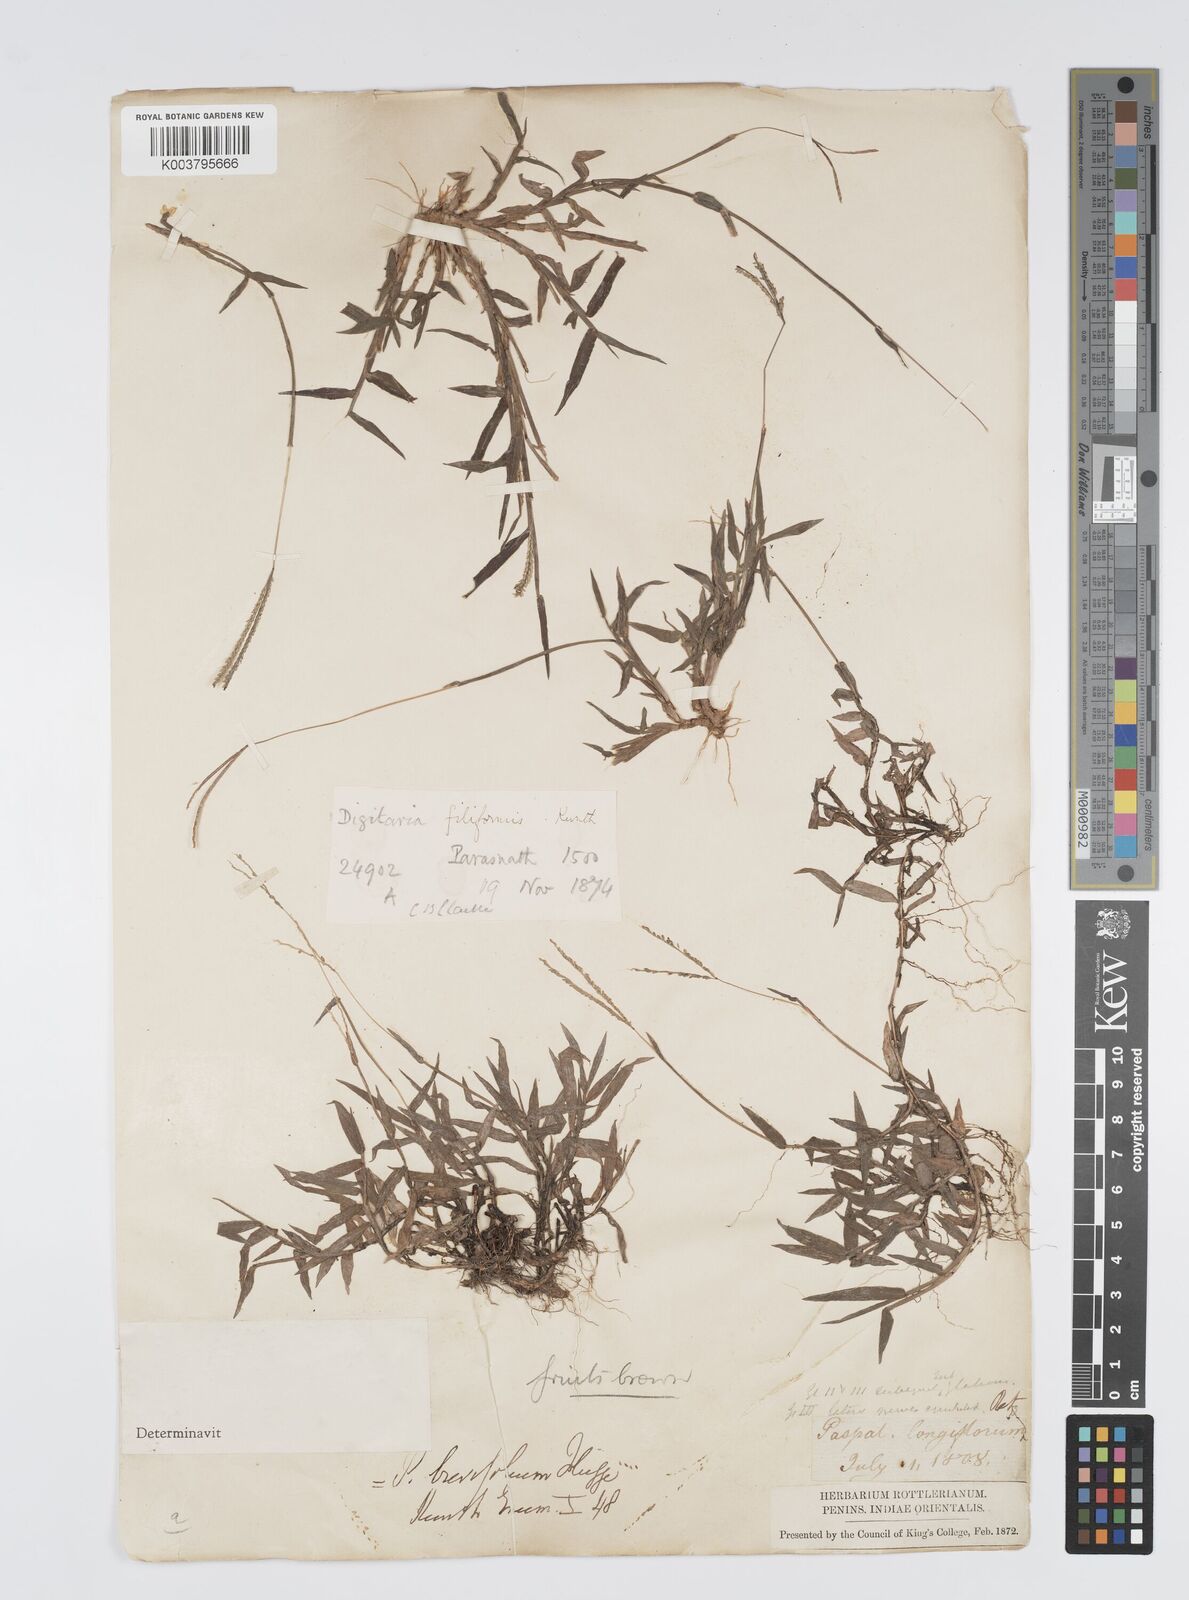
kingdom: Plantae
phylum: Tracheophyta
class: Liliopsida
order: Poales
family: Poaceae
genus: Digitaria
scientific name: Digitaria longiflora
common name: Wire crabgrass
